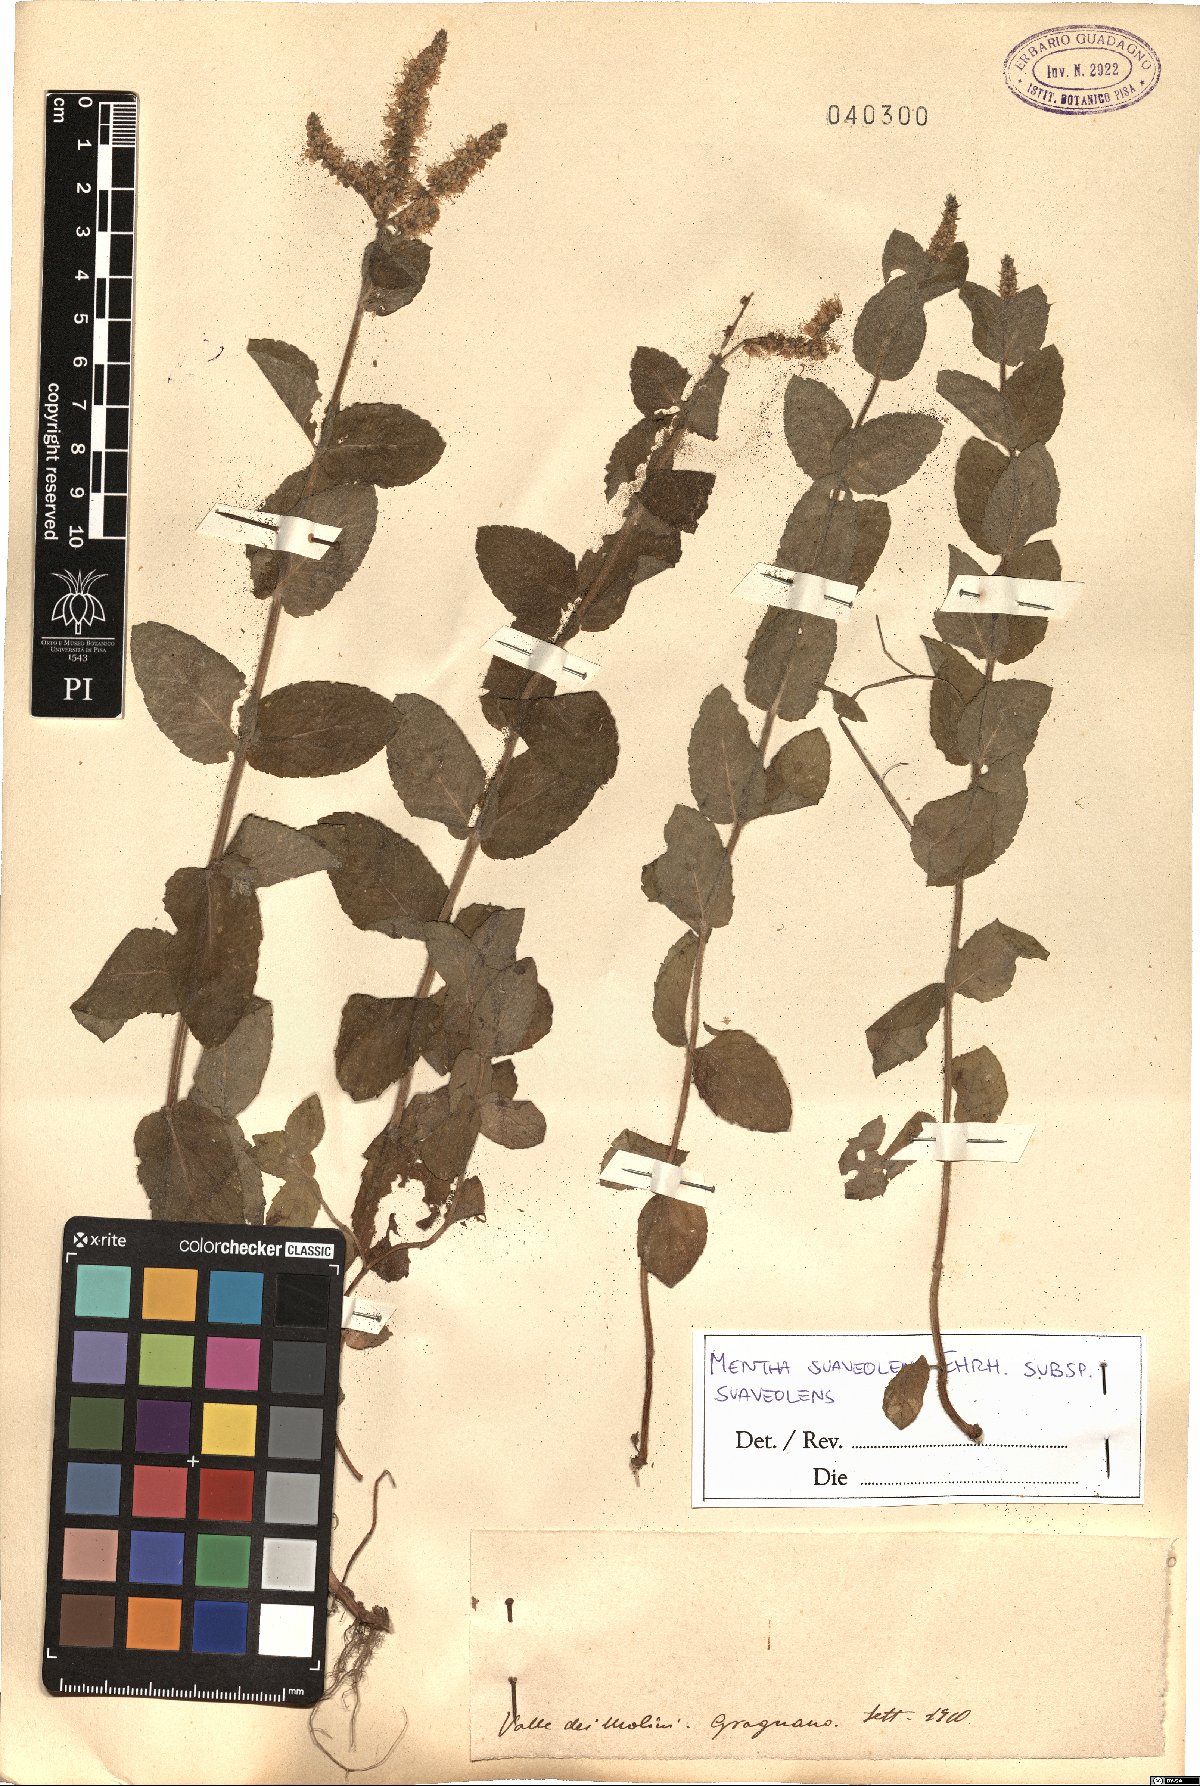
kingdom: Plantae
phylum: Tracheophyta
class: Magnoliopsida
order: Lamiales
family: Lamiaceae
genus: Mentha
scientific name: Mentha suaveolens
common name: Apple mint
